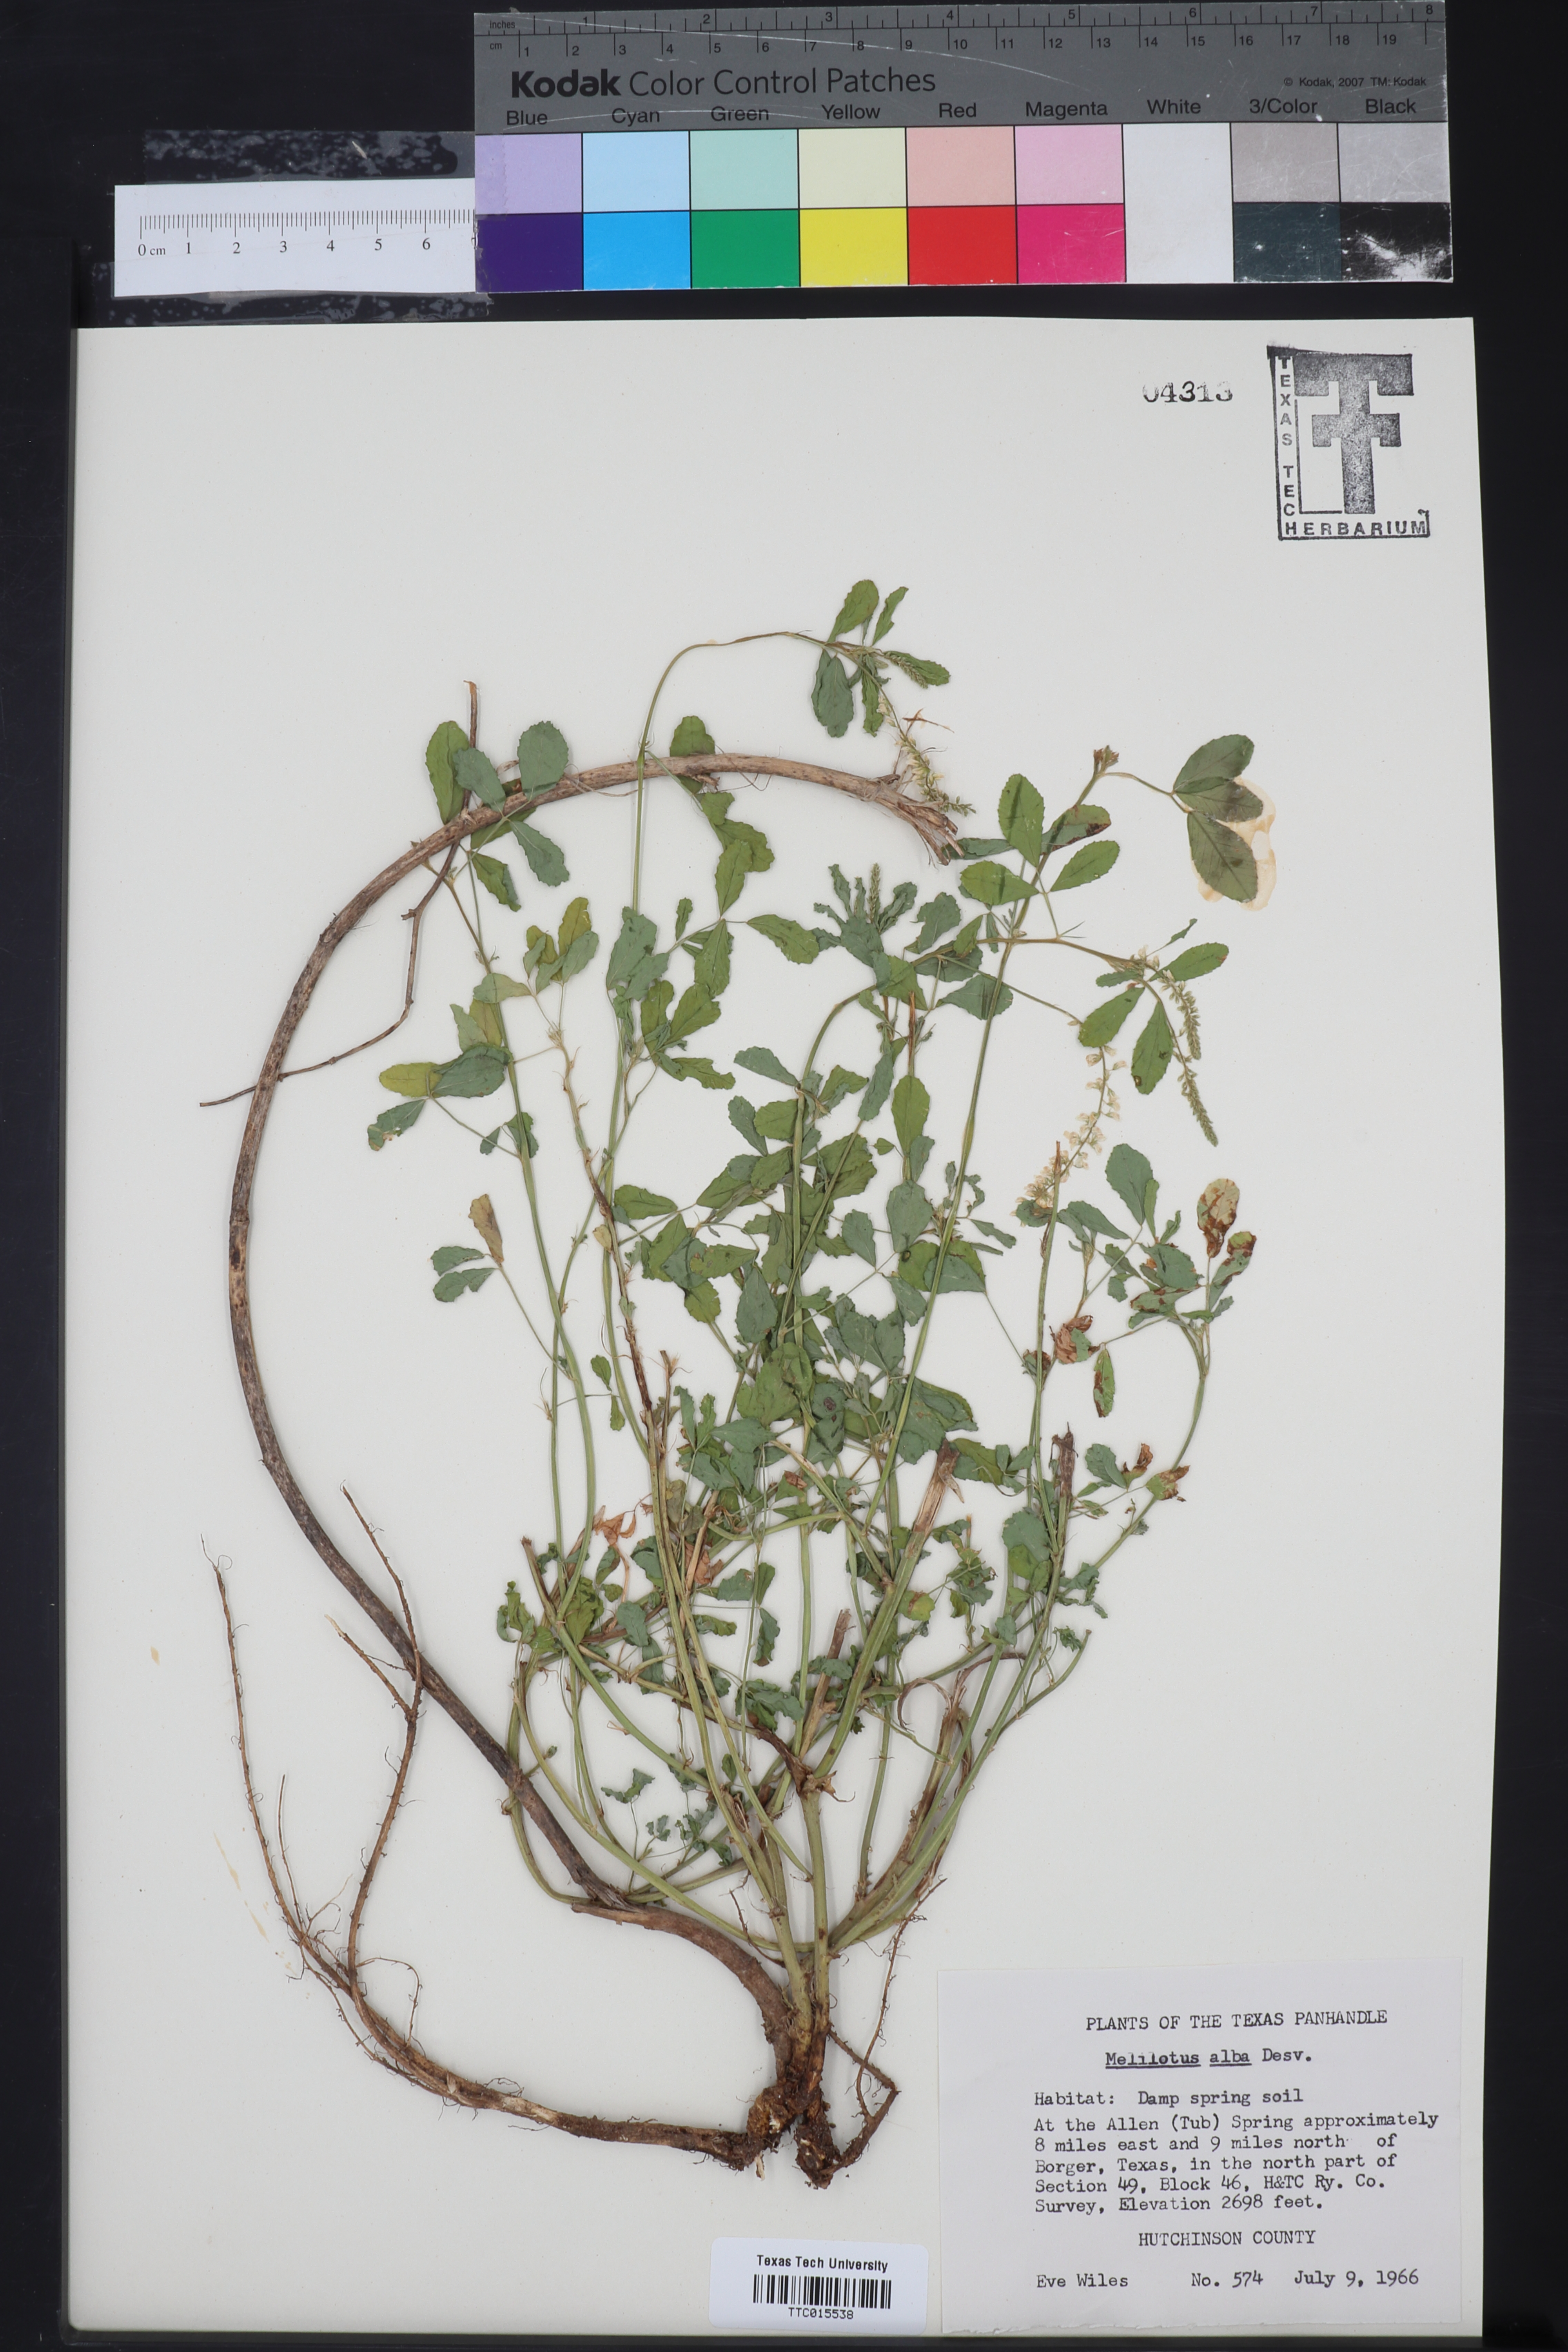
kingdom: Plantae
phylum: Tracheophyta
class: Magnoliopsida
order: Fabales
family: Fabaceae
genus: Melilotus
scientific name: Melilotus albus
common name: White melilot
